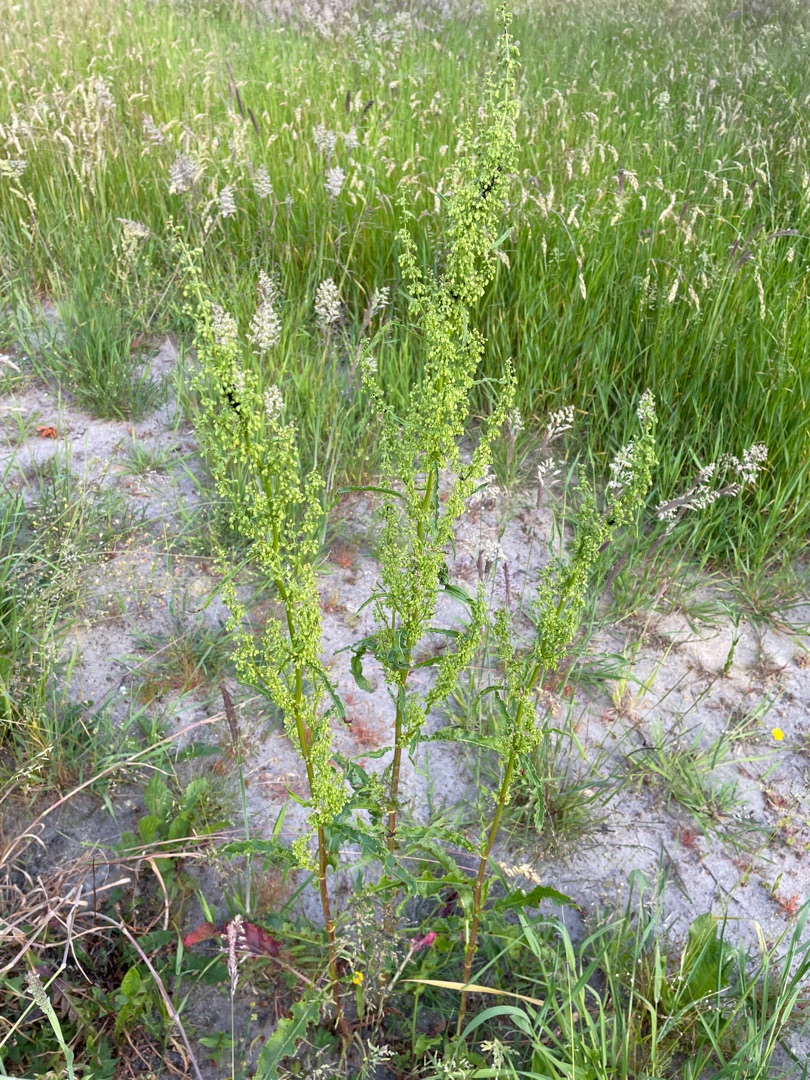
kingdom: Plantae
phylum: Tracheophyta
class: Magnoliopsida
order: Caryophyllales
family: Polygonaceae
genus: Rumex
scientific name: Rumex crispus
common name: Kruset skræppe
